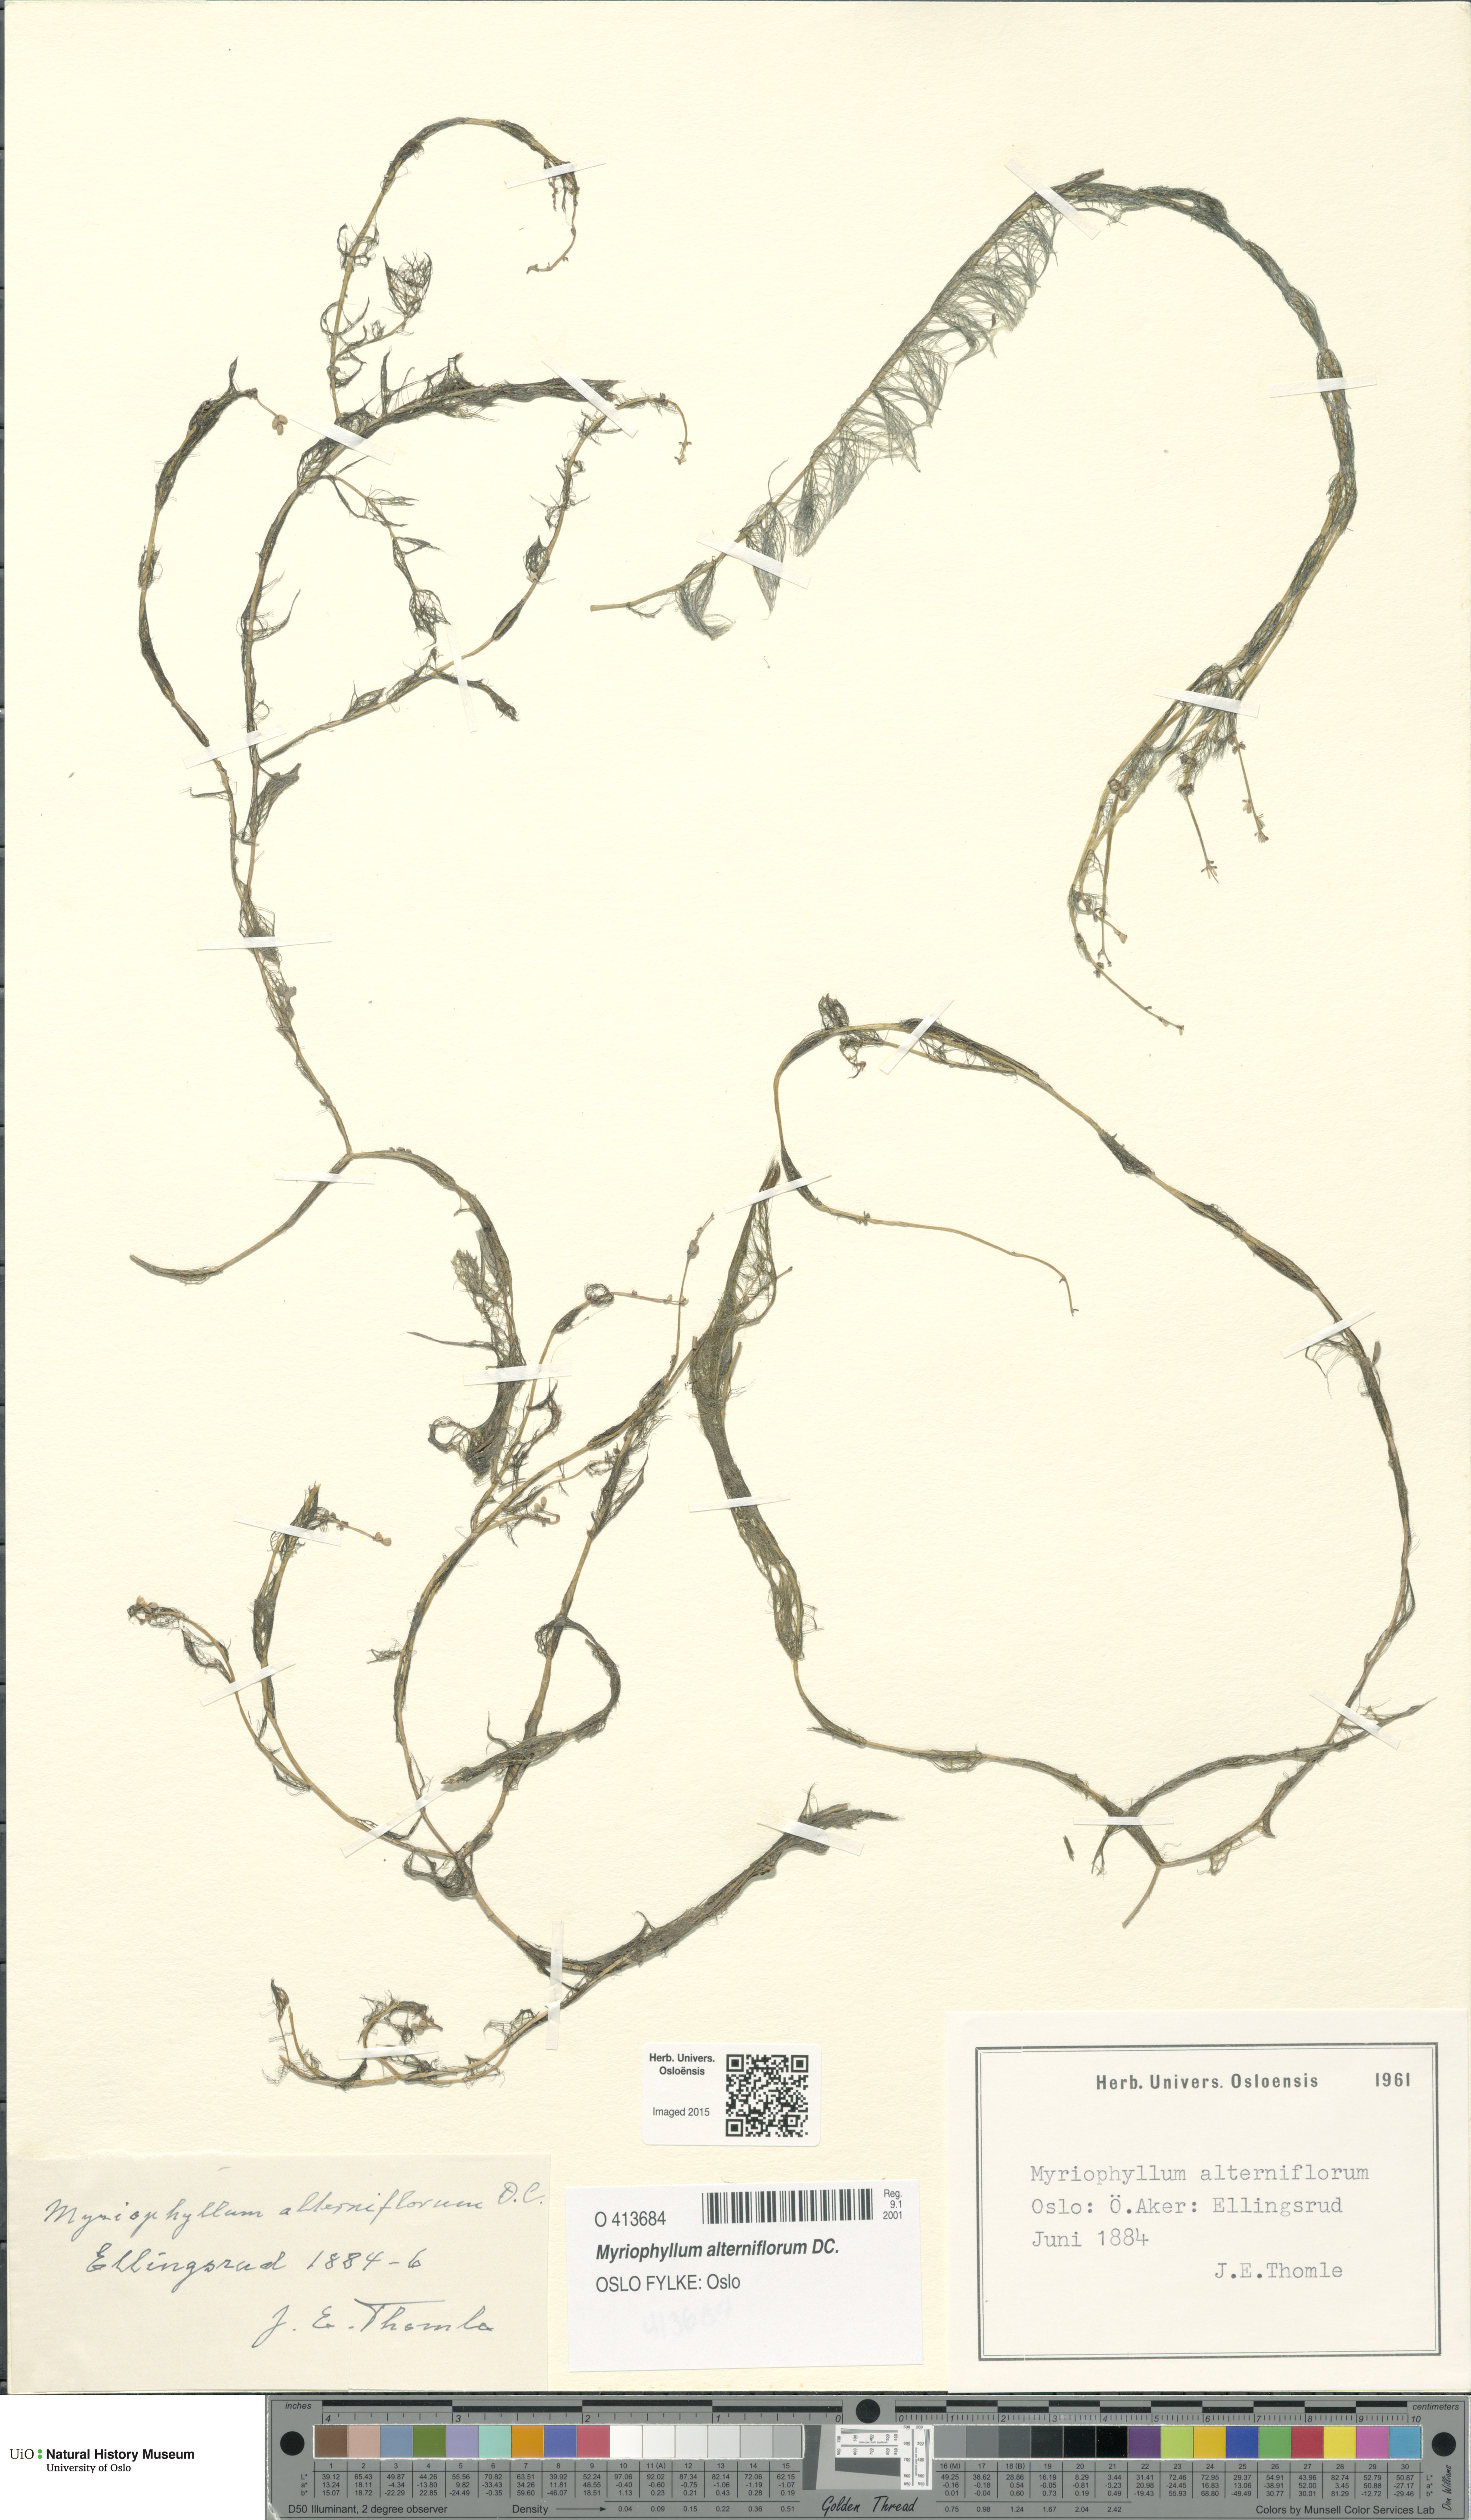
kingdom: Plantae
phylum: Tracheophyta
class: Magnoliopsida
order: Saxifragales
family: Haloragaceae
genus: Myriophyllum
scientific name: Myriophyllum alterniflorum
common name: Alternate water-milfoil
